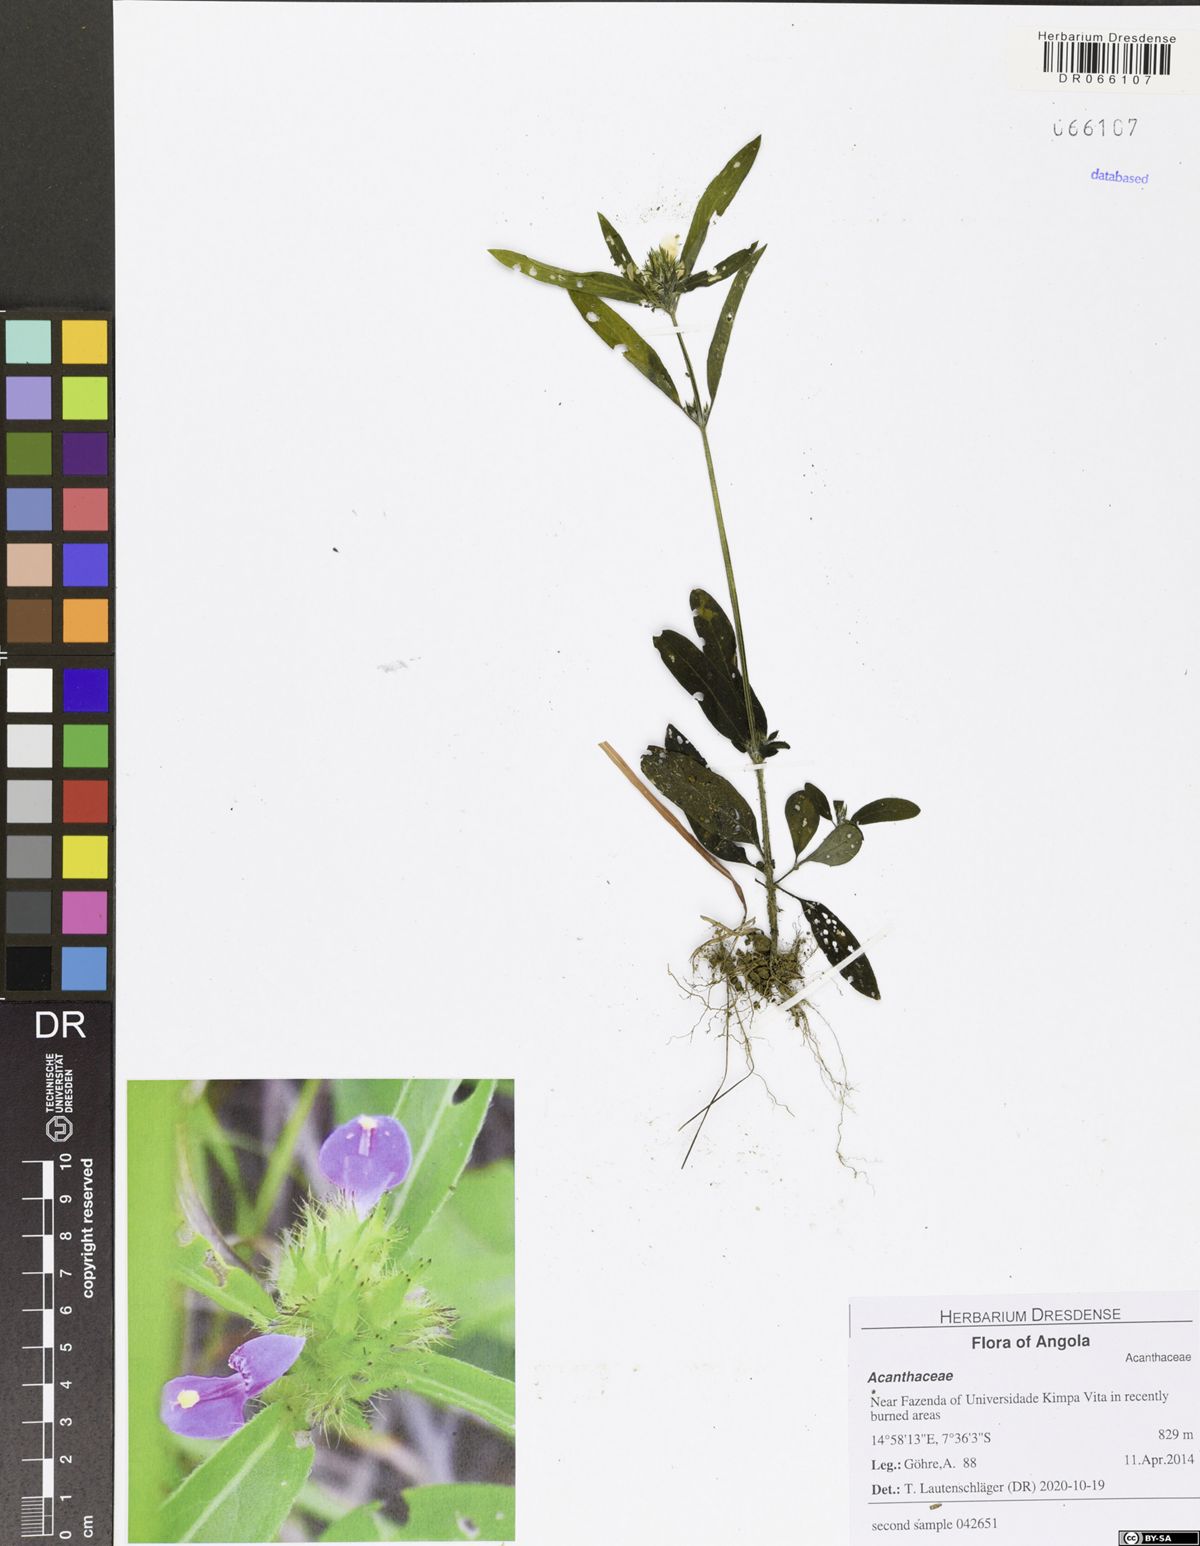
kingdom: Plantae
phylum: Tracheophyta
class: Magnoliopsida
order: Lamiales
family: Acanthaceae
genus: Hypoestes
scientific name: Hypoestes cancellata
